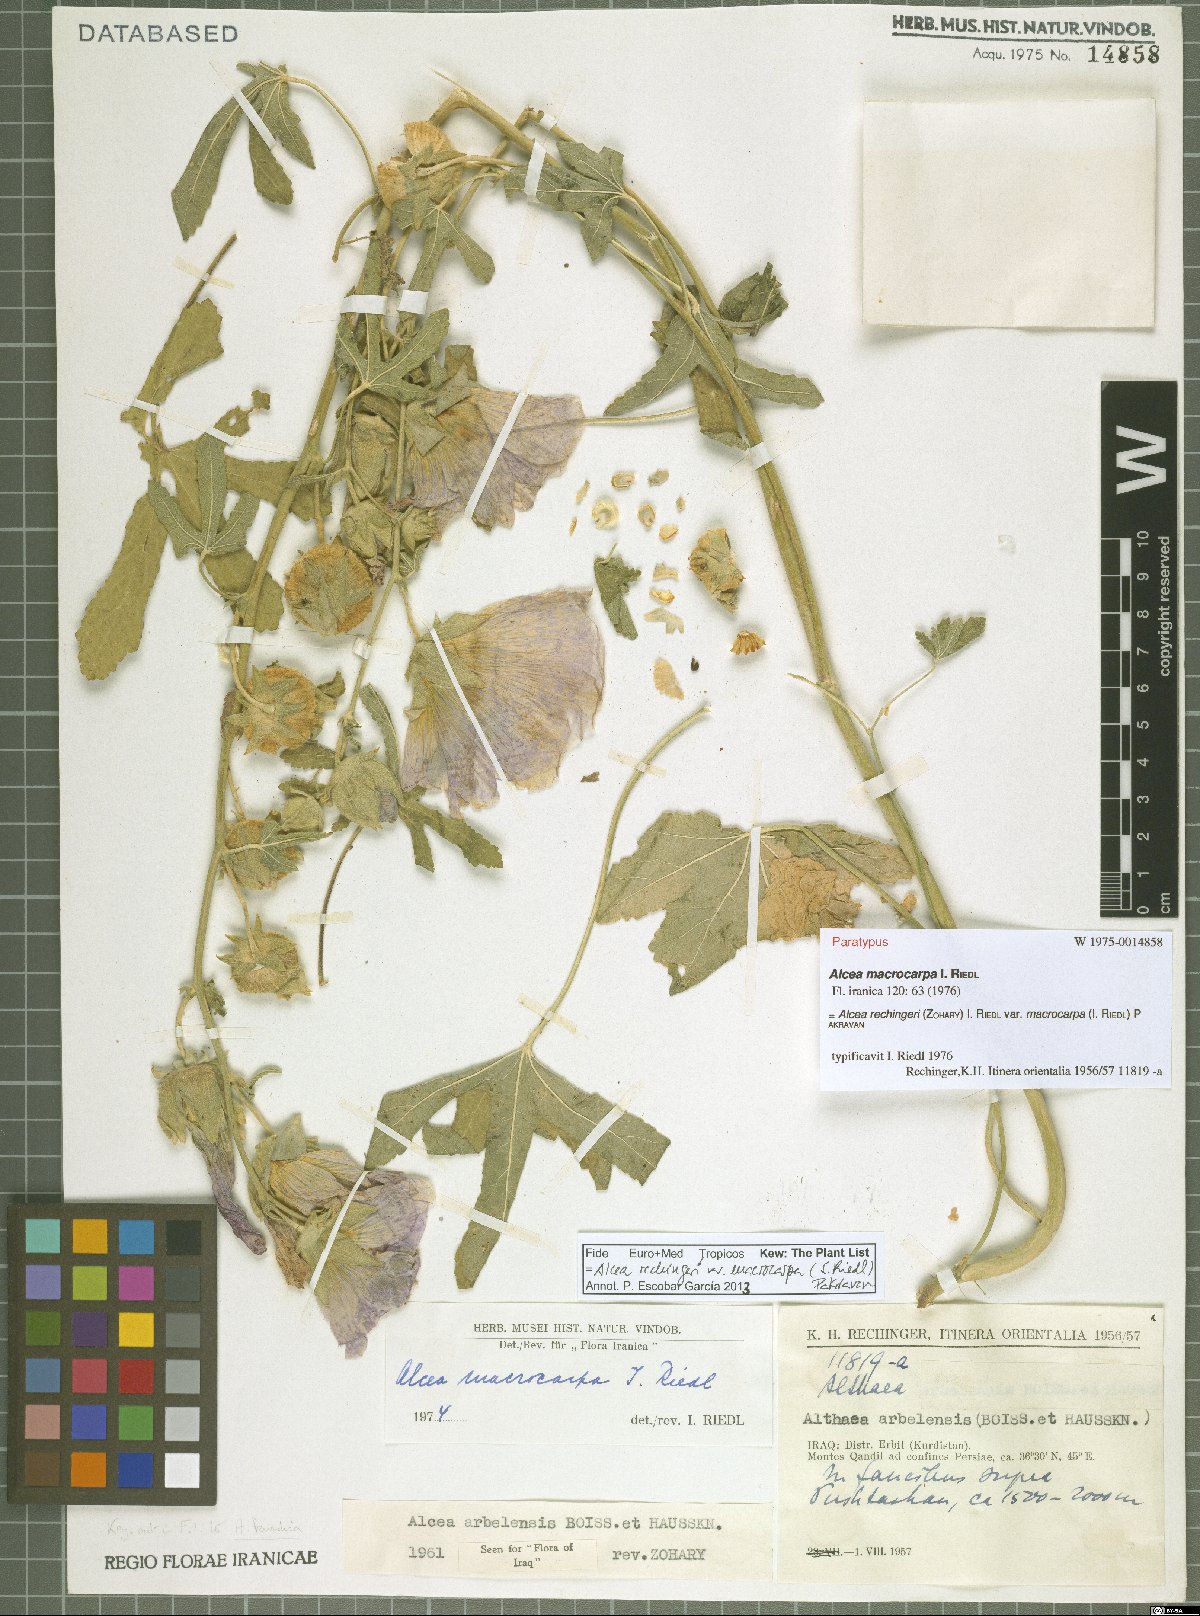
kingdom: Plantae
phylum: Tracheophyta
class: Magnoliopsida
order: Malvales
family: Malvaceae
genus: Alcea
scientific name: Alcea rechingeri
